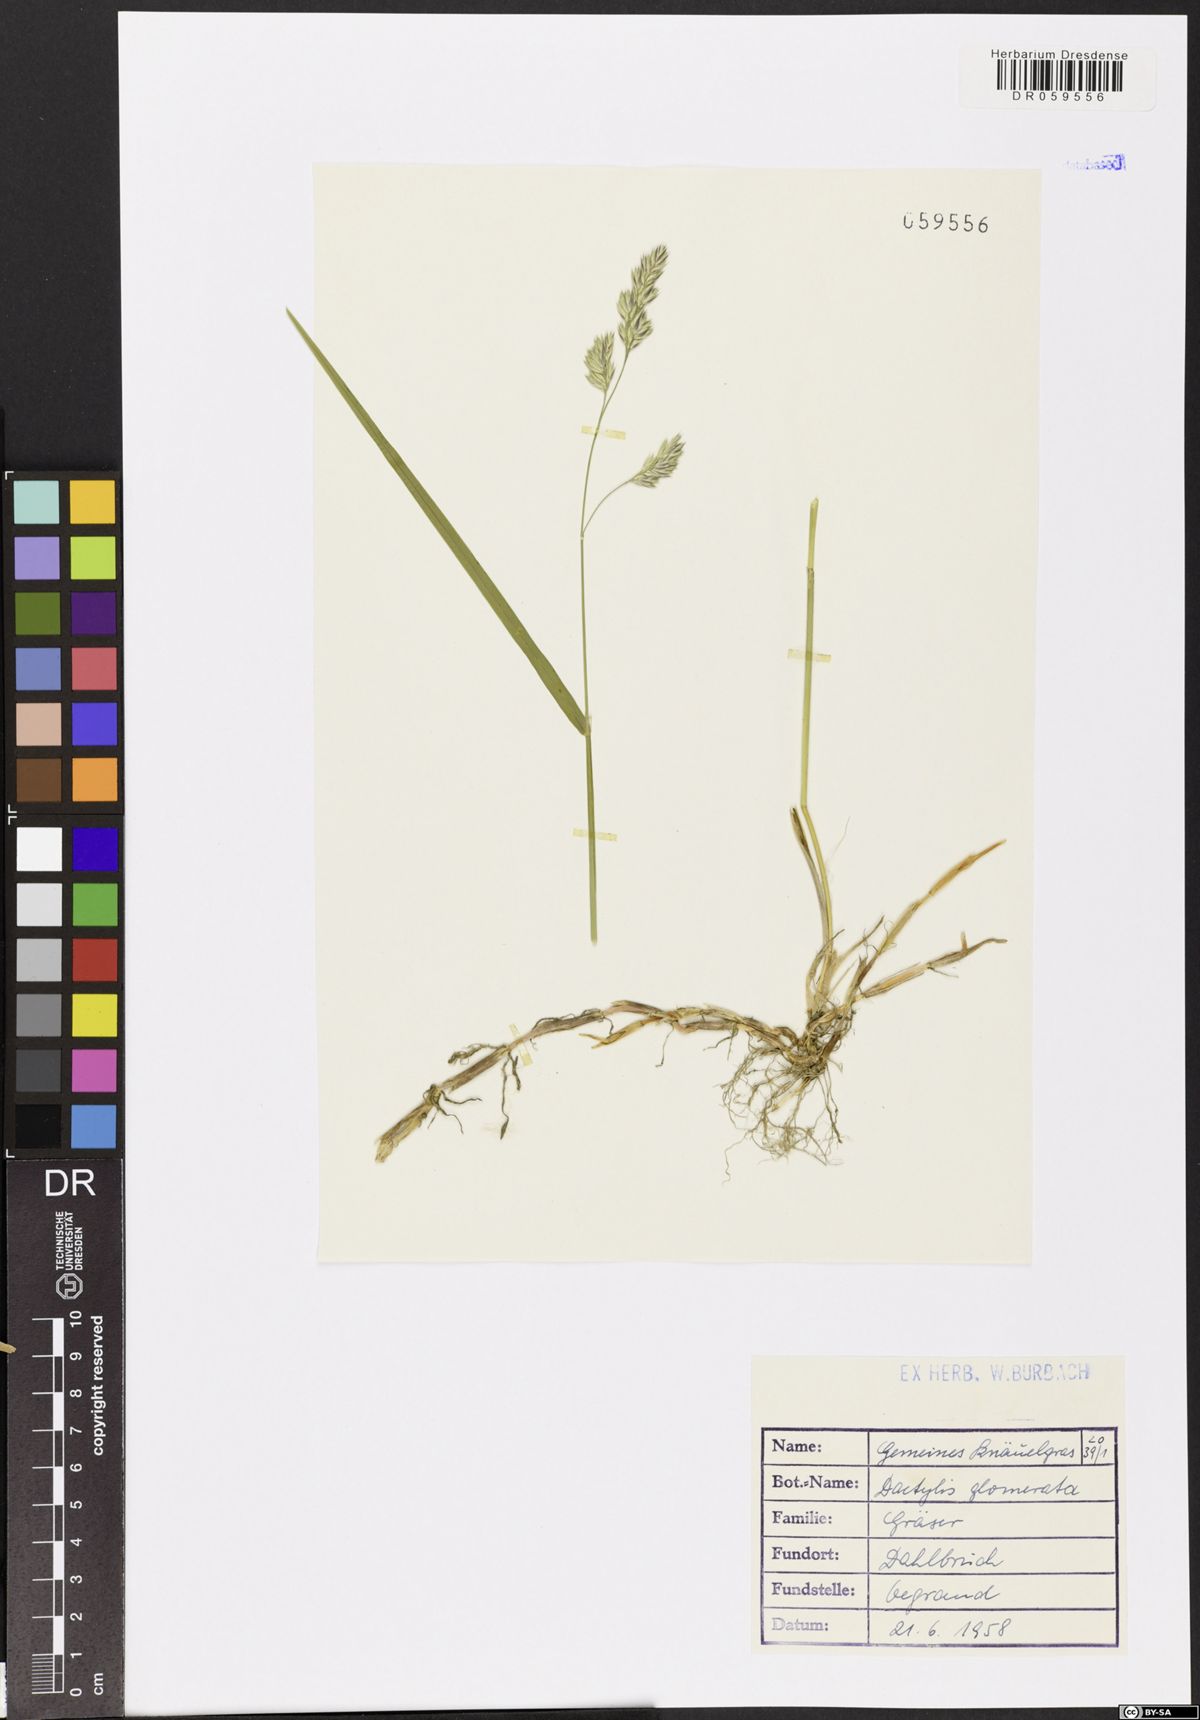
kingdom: Plantae
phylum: Tracheophyta
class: Liliopsida
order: Poales
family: Poaceae
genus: Dactylis
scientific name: Dactylis glomerata
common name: Orchardgrass
